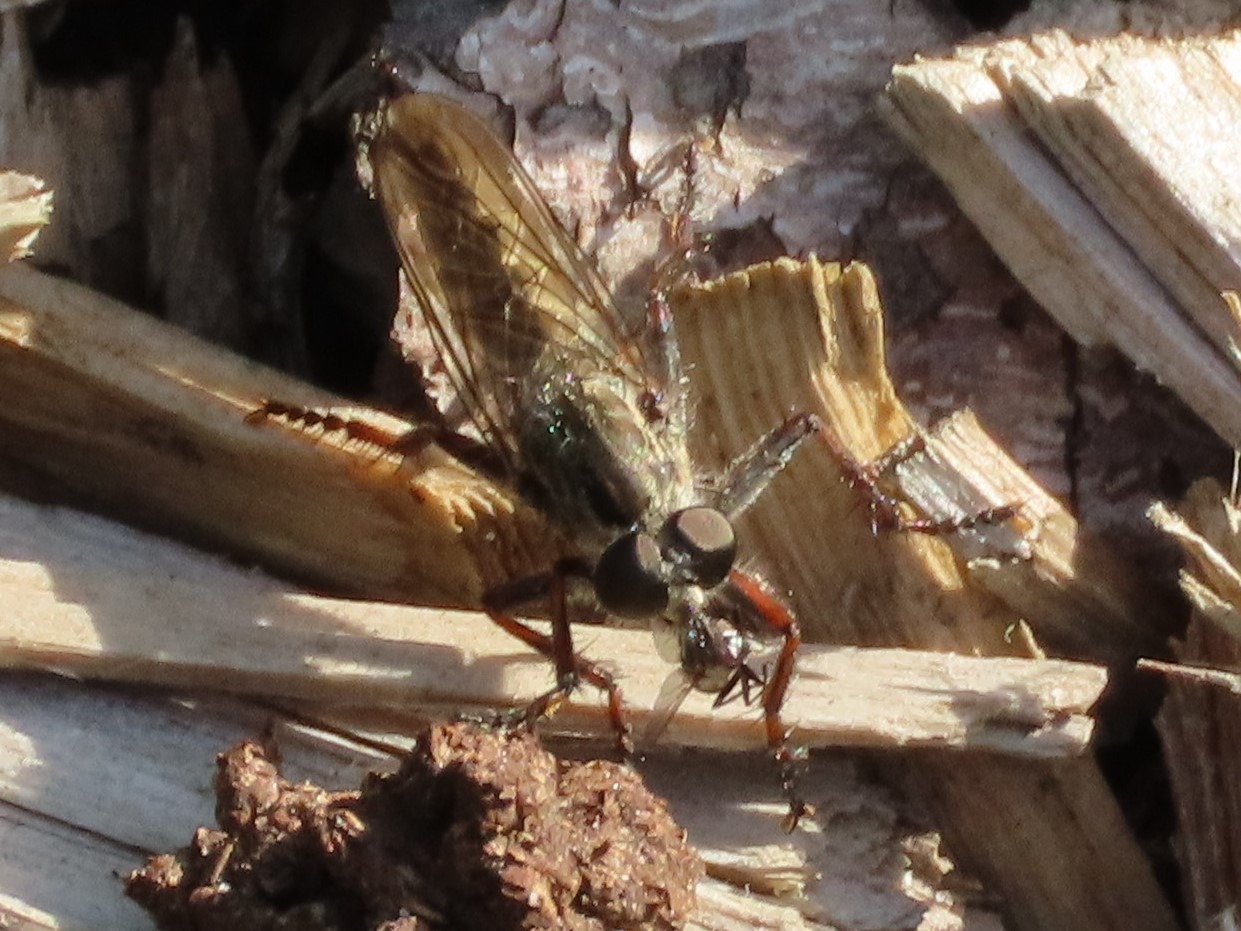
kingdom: Animalia
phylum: Arthropoda
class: Insecta
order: Diptera
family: Asilidae
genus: Machimus
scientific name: Machimus atricapillus
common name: Sort hårrovflue
